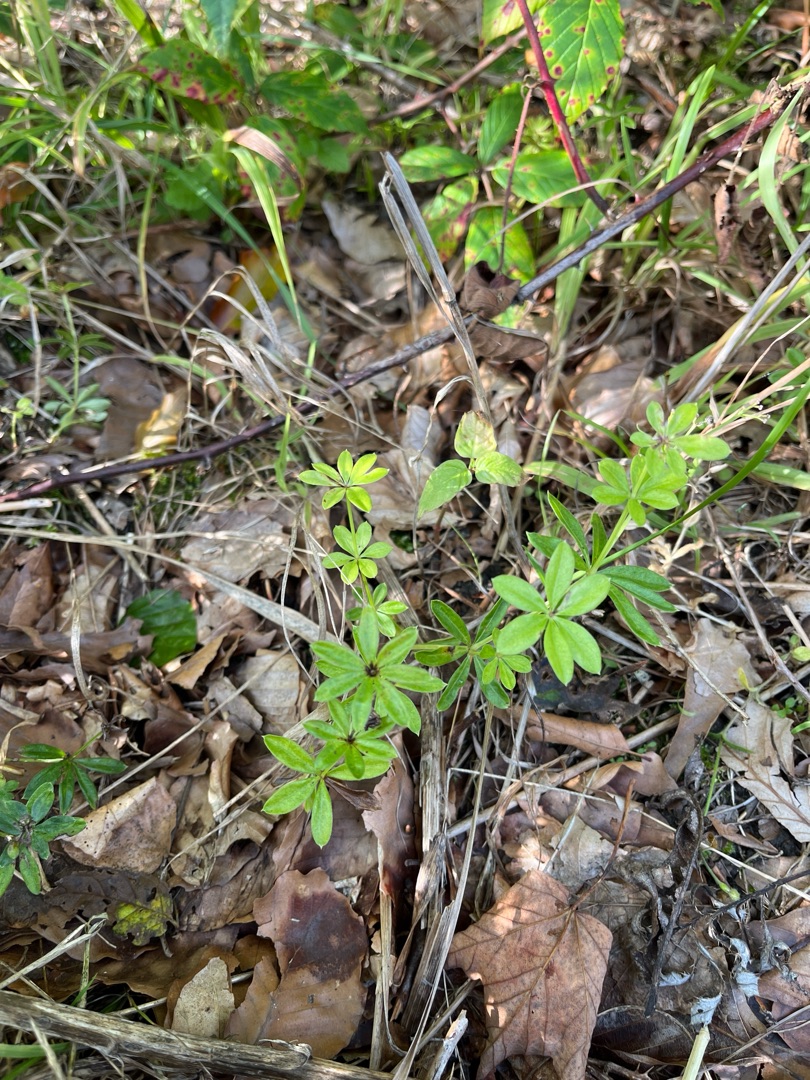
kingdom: Plantae
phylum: Tracheophyta
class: Magnoliopsida
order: Gentianales
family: Rubiaceae
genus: Galium
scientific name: Galium odoratum
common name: Skovmærke
